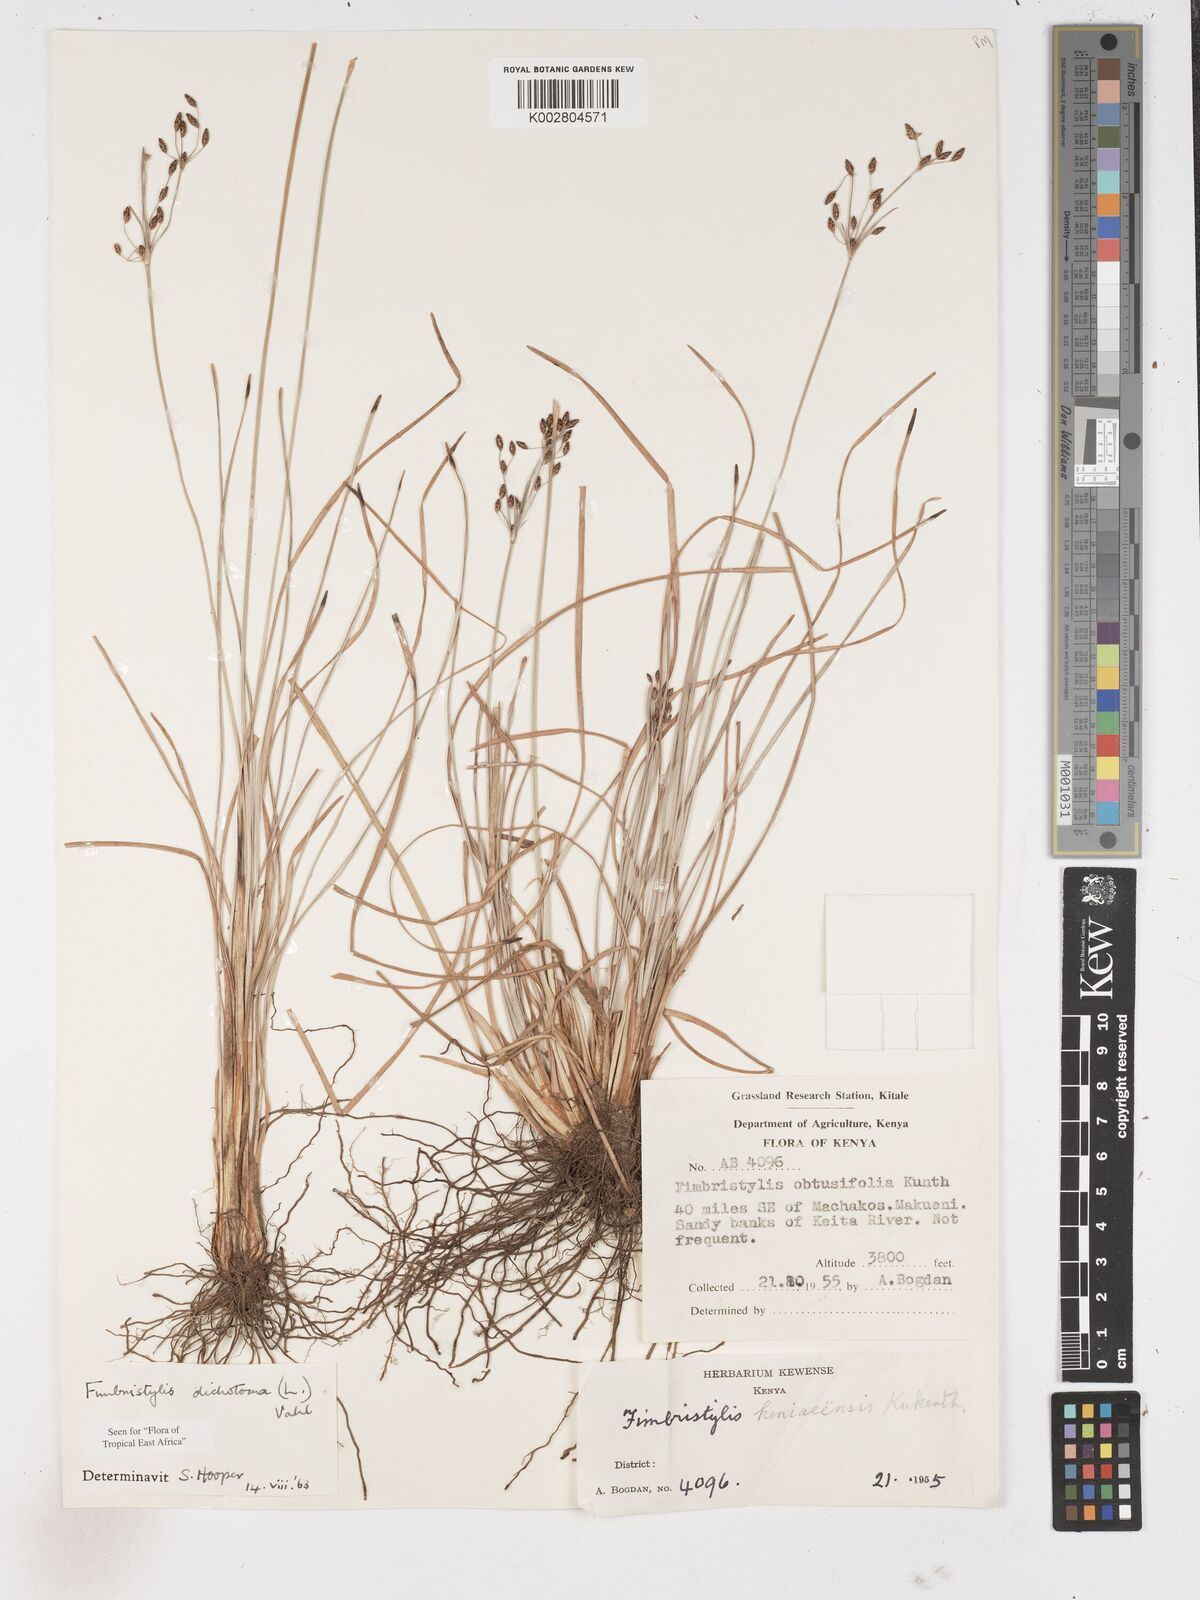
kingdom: Plantae
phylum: Tracheophyta
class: Liliopsida
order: Poales
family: Cyperaceae
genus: Fimbristylis
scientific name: Fimbristylis dichotoma
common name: Forked fimbry
